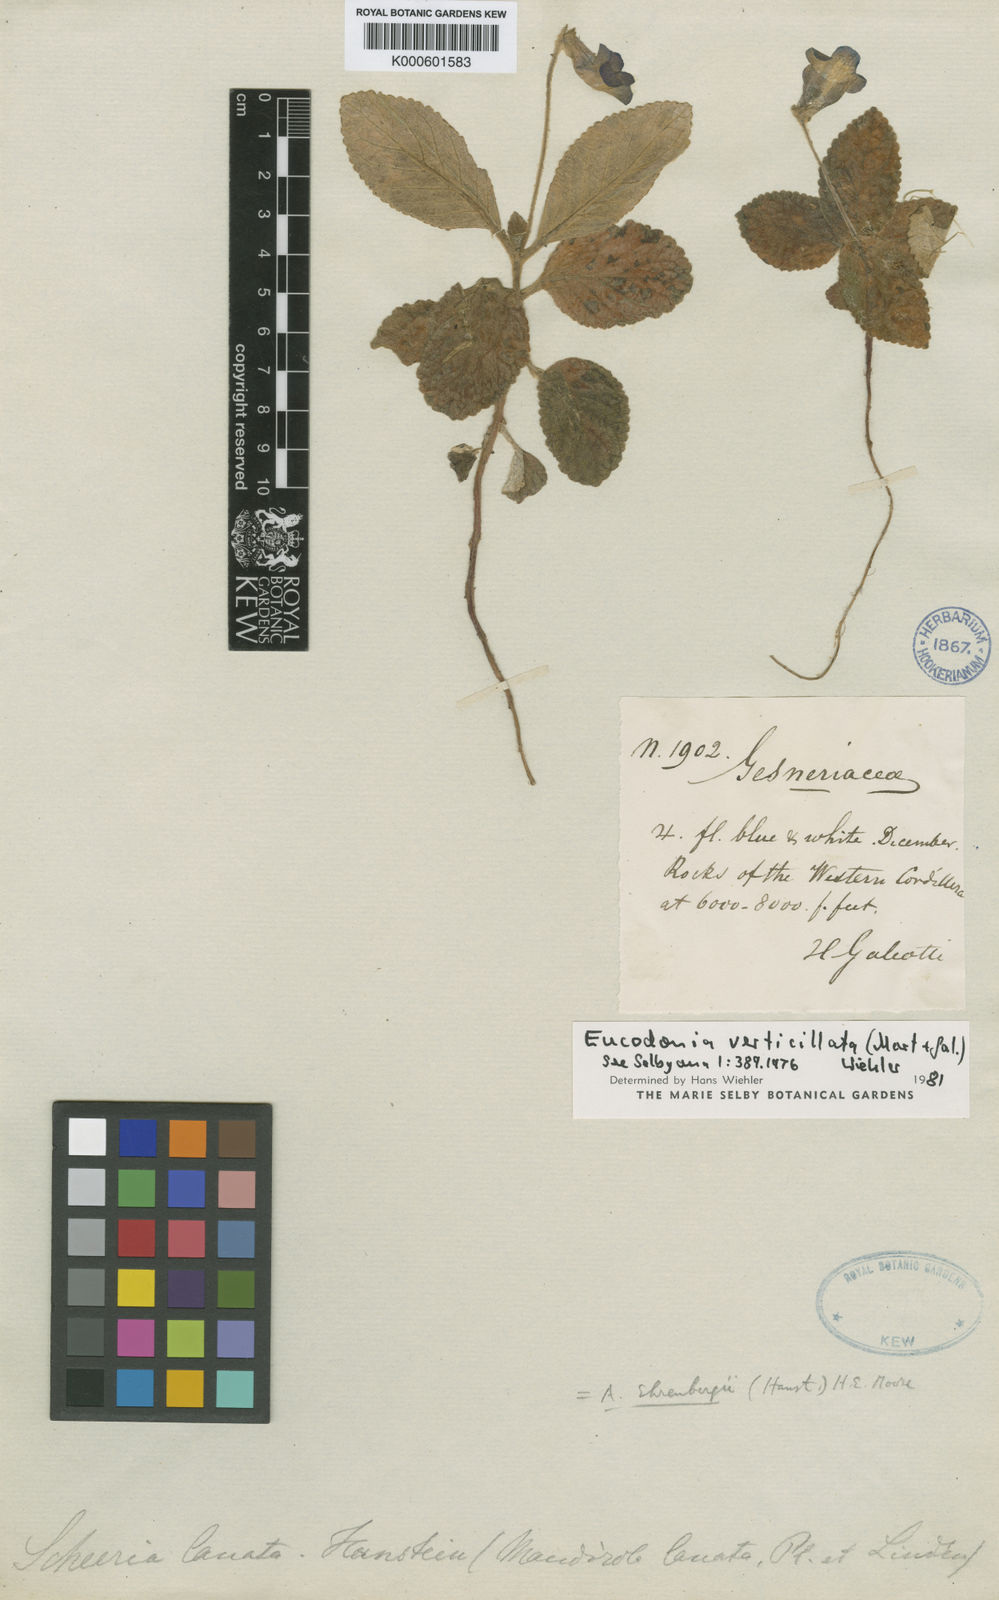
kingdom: Plantae
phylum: Tracheophyta
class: Magnoliopsida
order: Lamiales
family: Gesneriaceae
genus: Eucodonia
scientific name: Eucodonia verticillata
